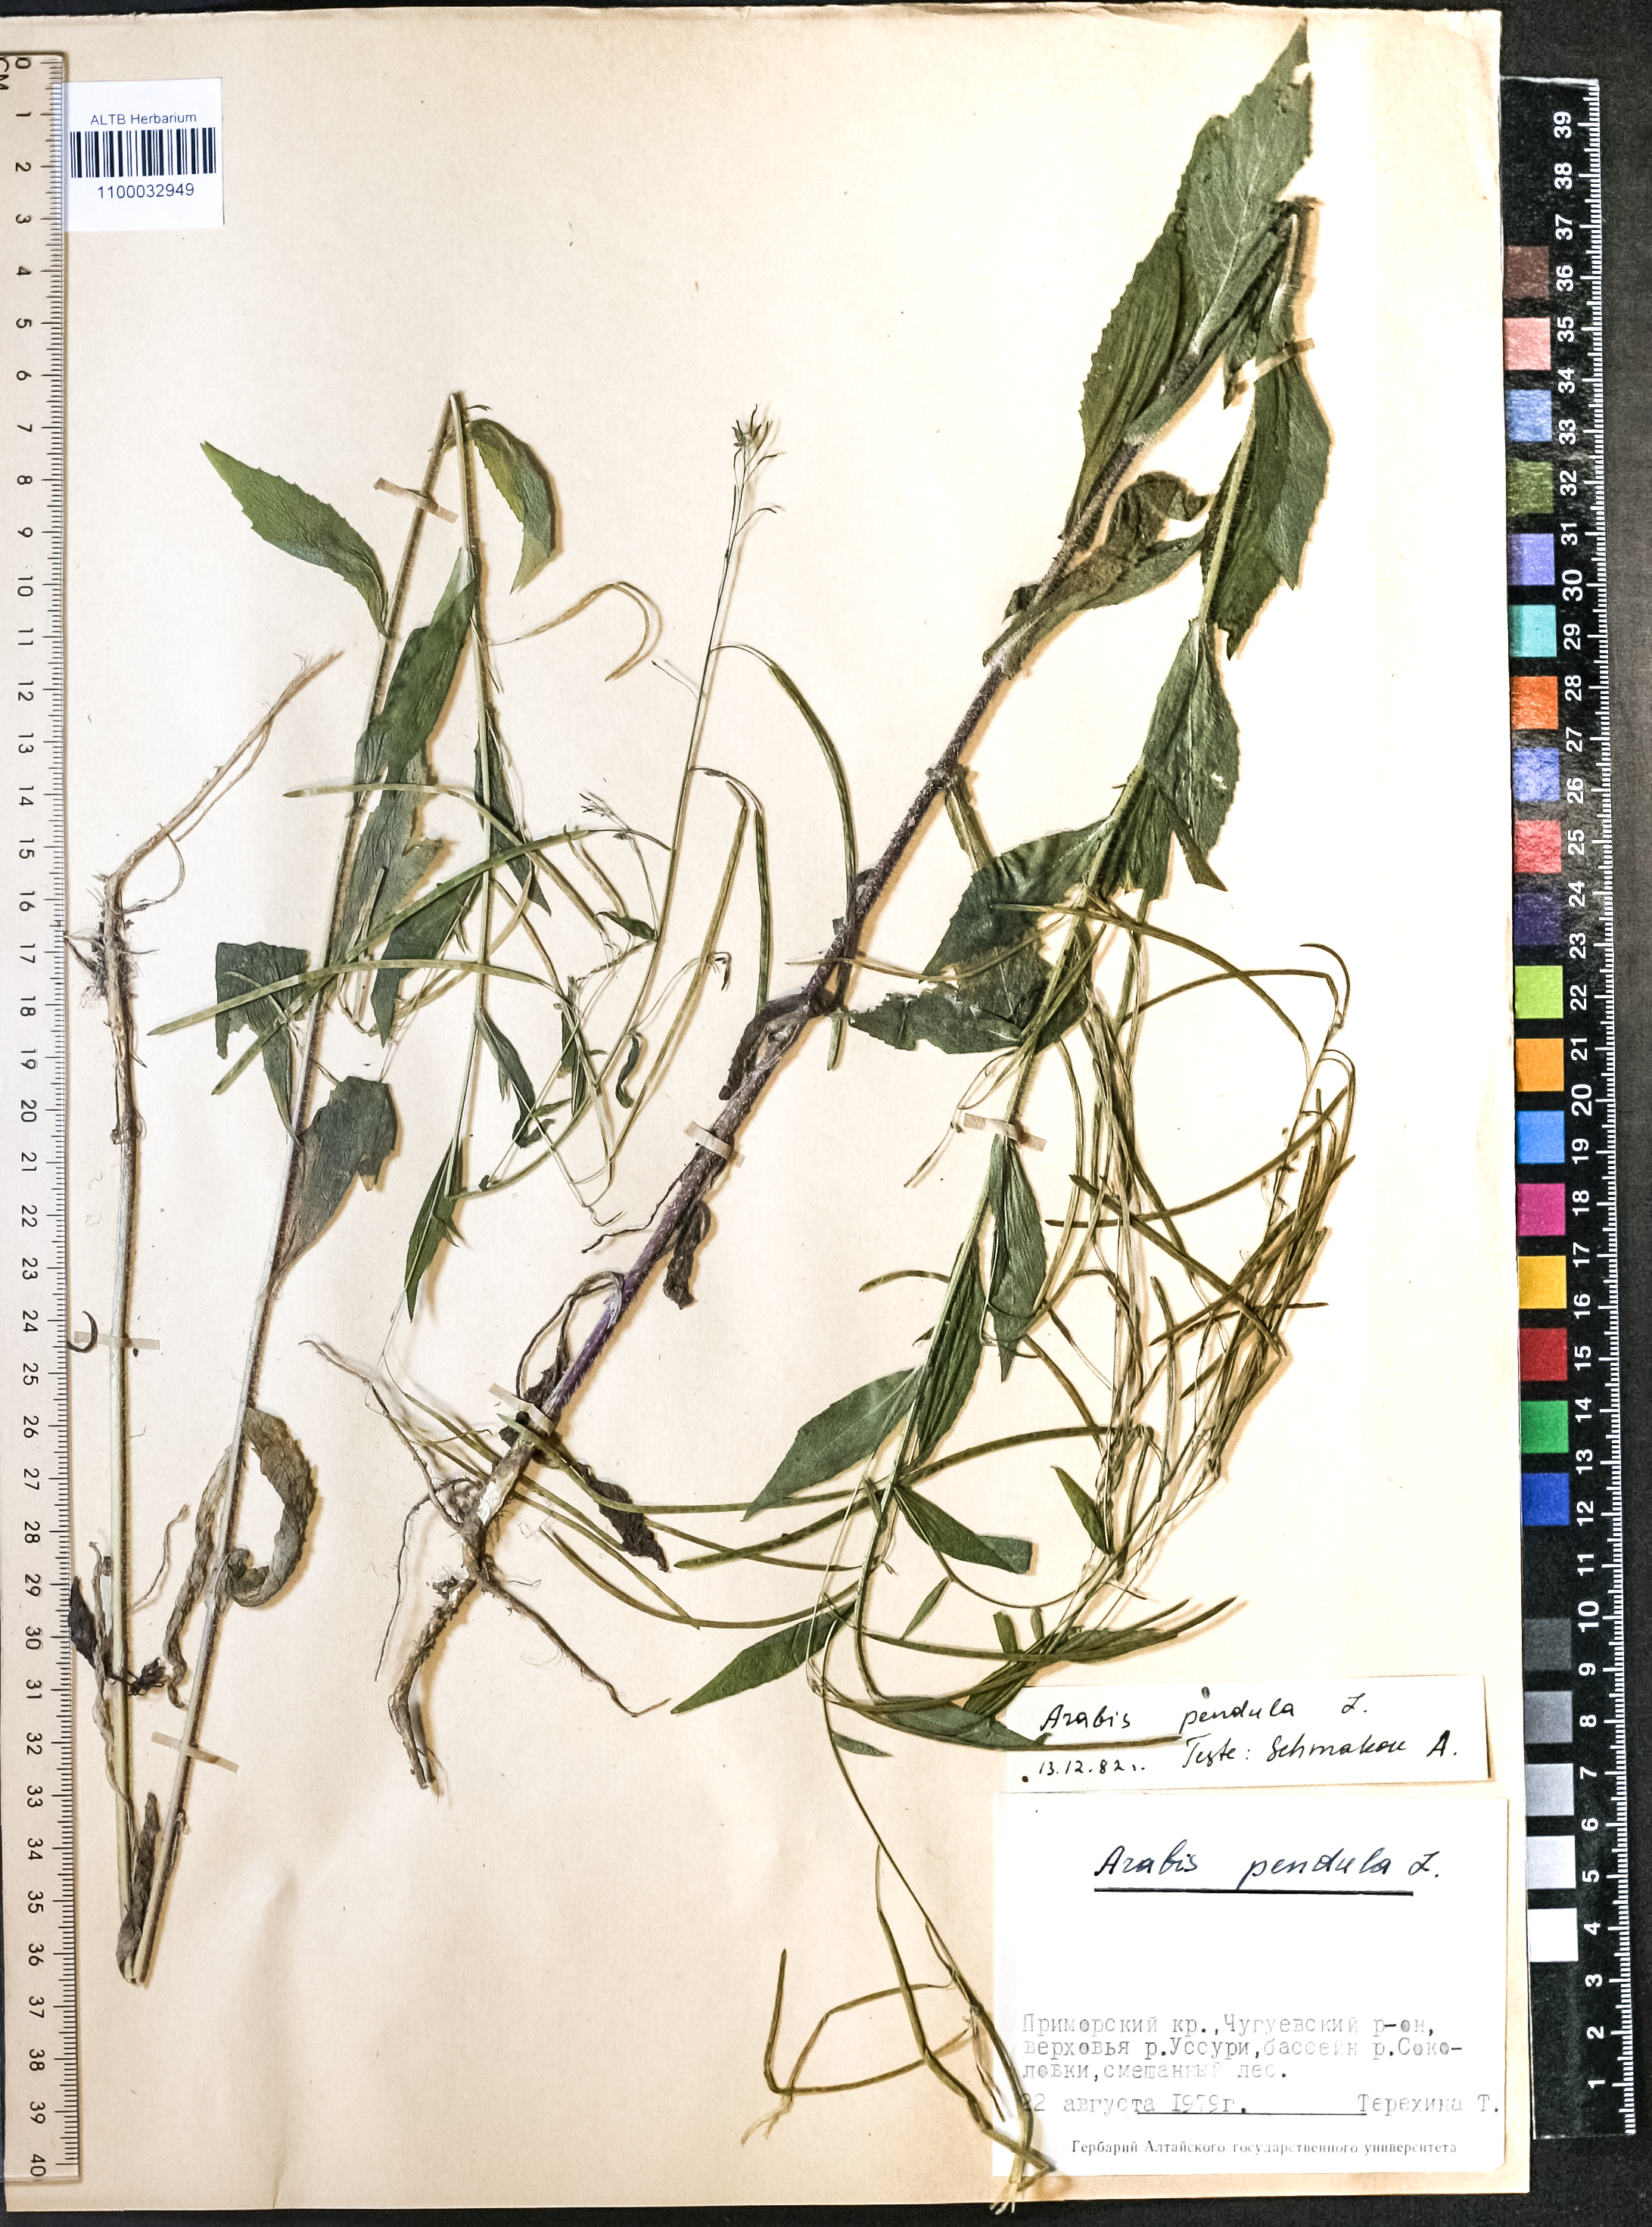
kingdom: Plantae
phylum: Tracheophyta
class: Magnoliopsida
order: Brassicales
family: Brassicaceae
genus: Catolobus
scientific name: Catolobus pendulus
